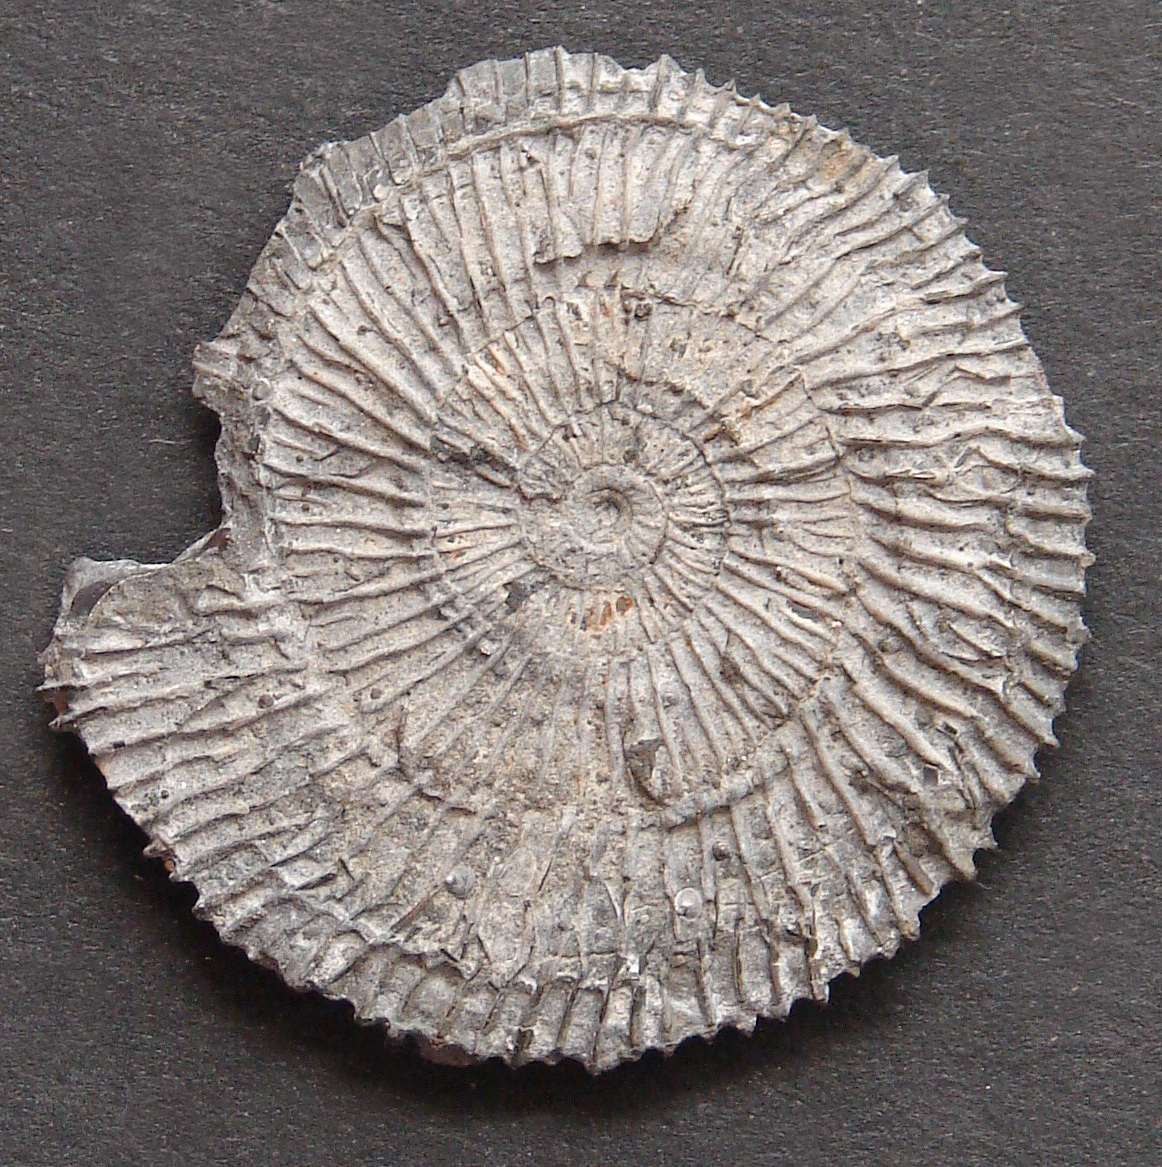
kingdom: Animalia
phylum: Mollusca
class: Cephalopoda
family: Dactylioceratidae
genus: Dactylioceras
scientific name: Dactylioceras
